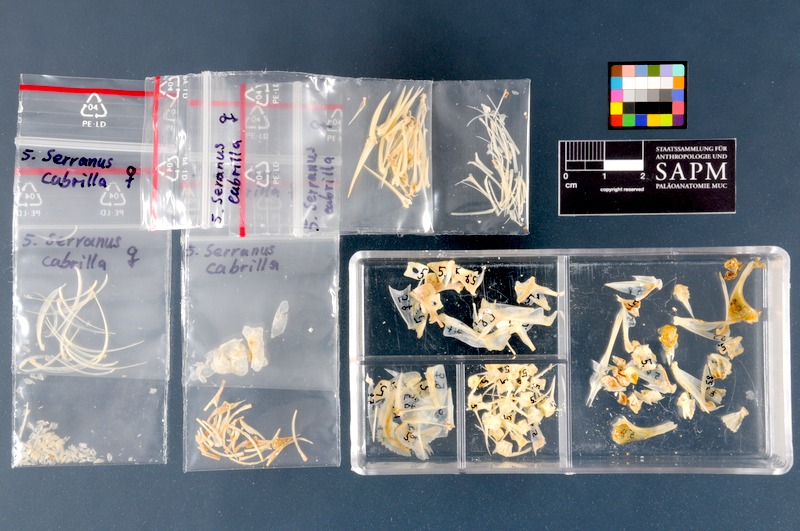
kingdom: Animalia
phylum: Chordata
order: Perciformes
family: Serranidae
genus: Serranus
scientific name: Serranus cabrilla
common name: Comber
